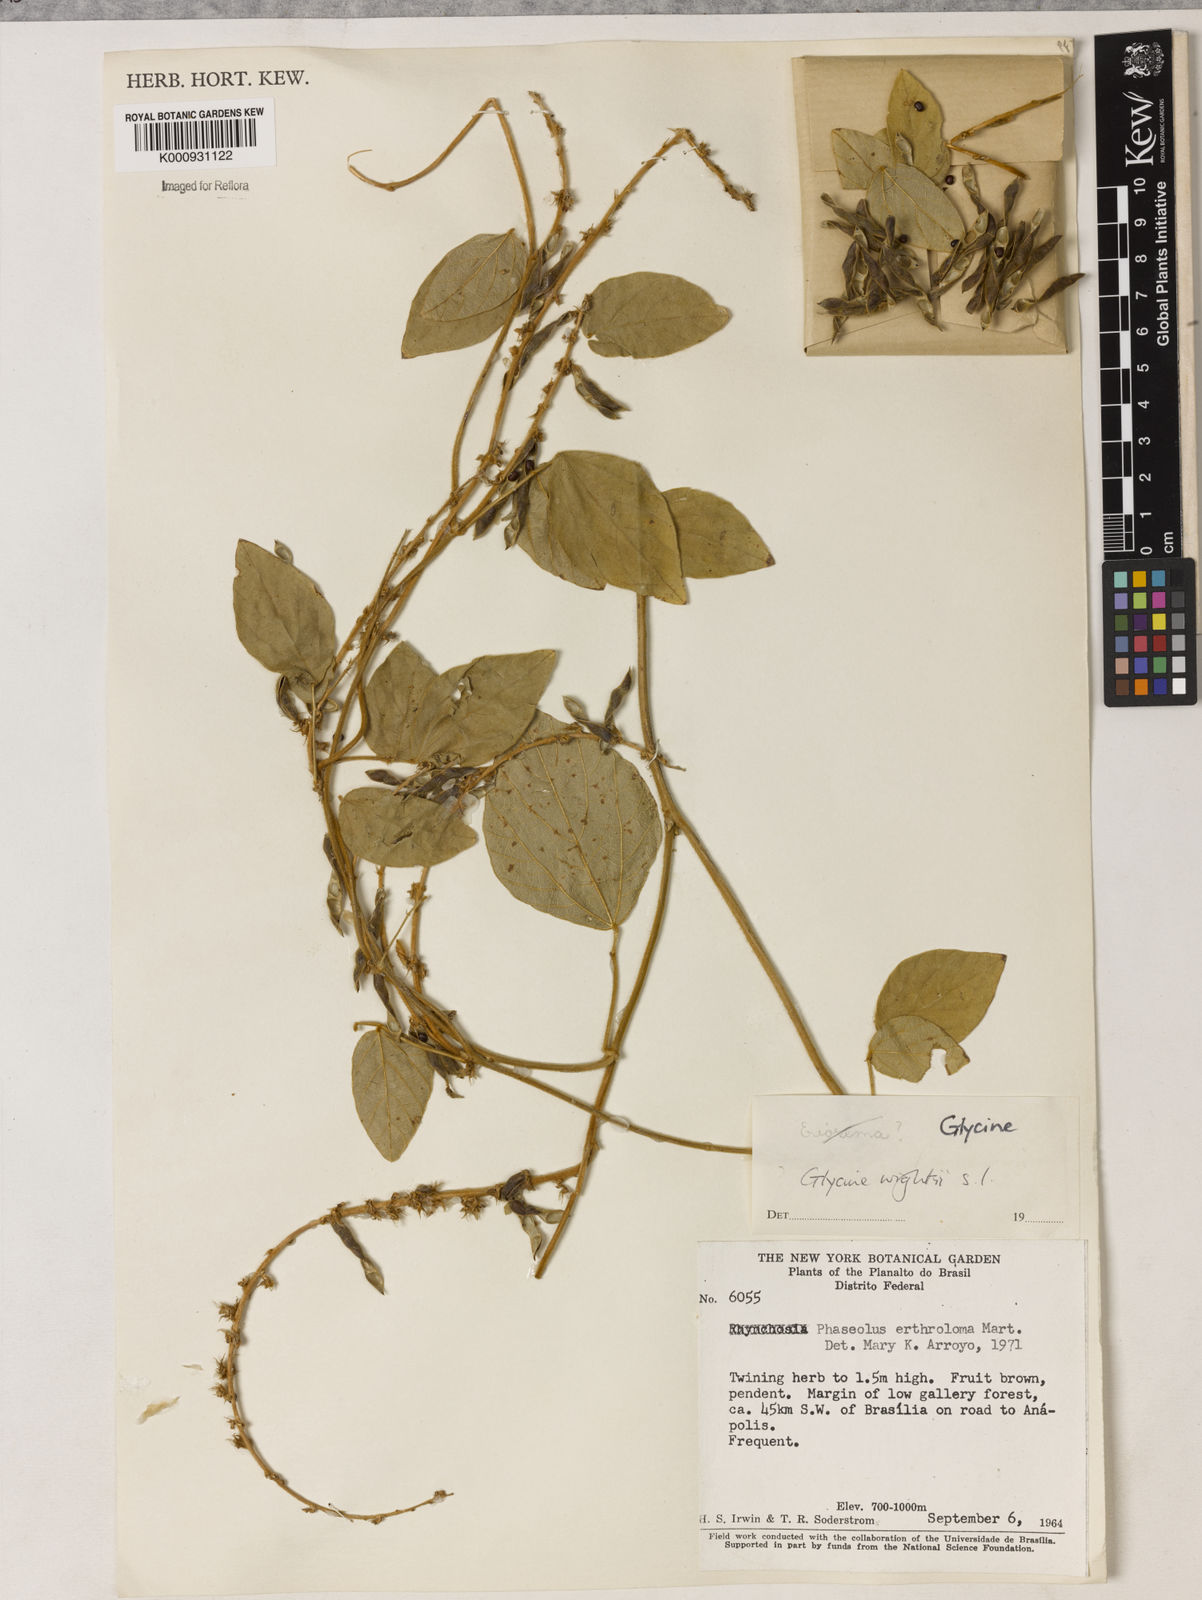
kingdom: Plantae
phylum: Tracheophyta
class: Magnoliopsida
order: Fabales
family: Fabaceae
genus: Neonotonia
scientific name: Neonotonia wightii
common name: Perennial soybean
